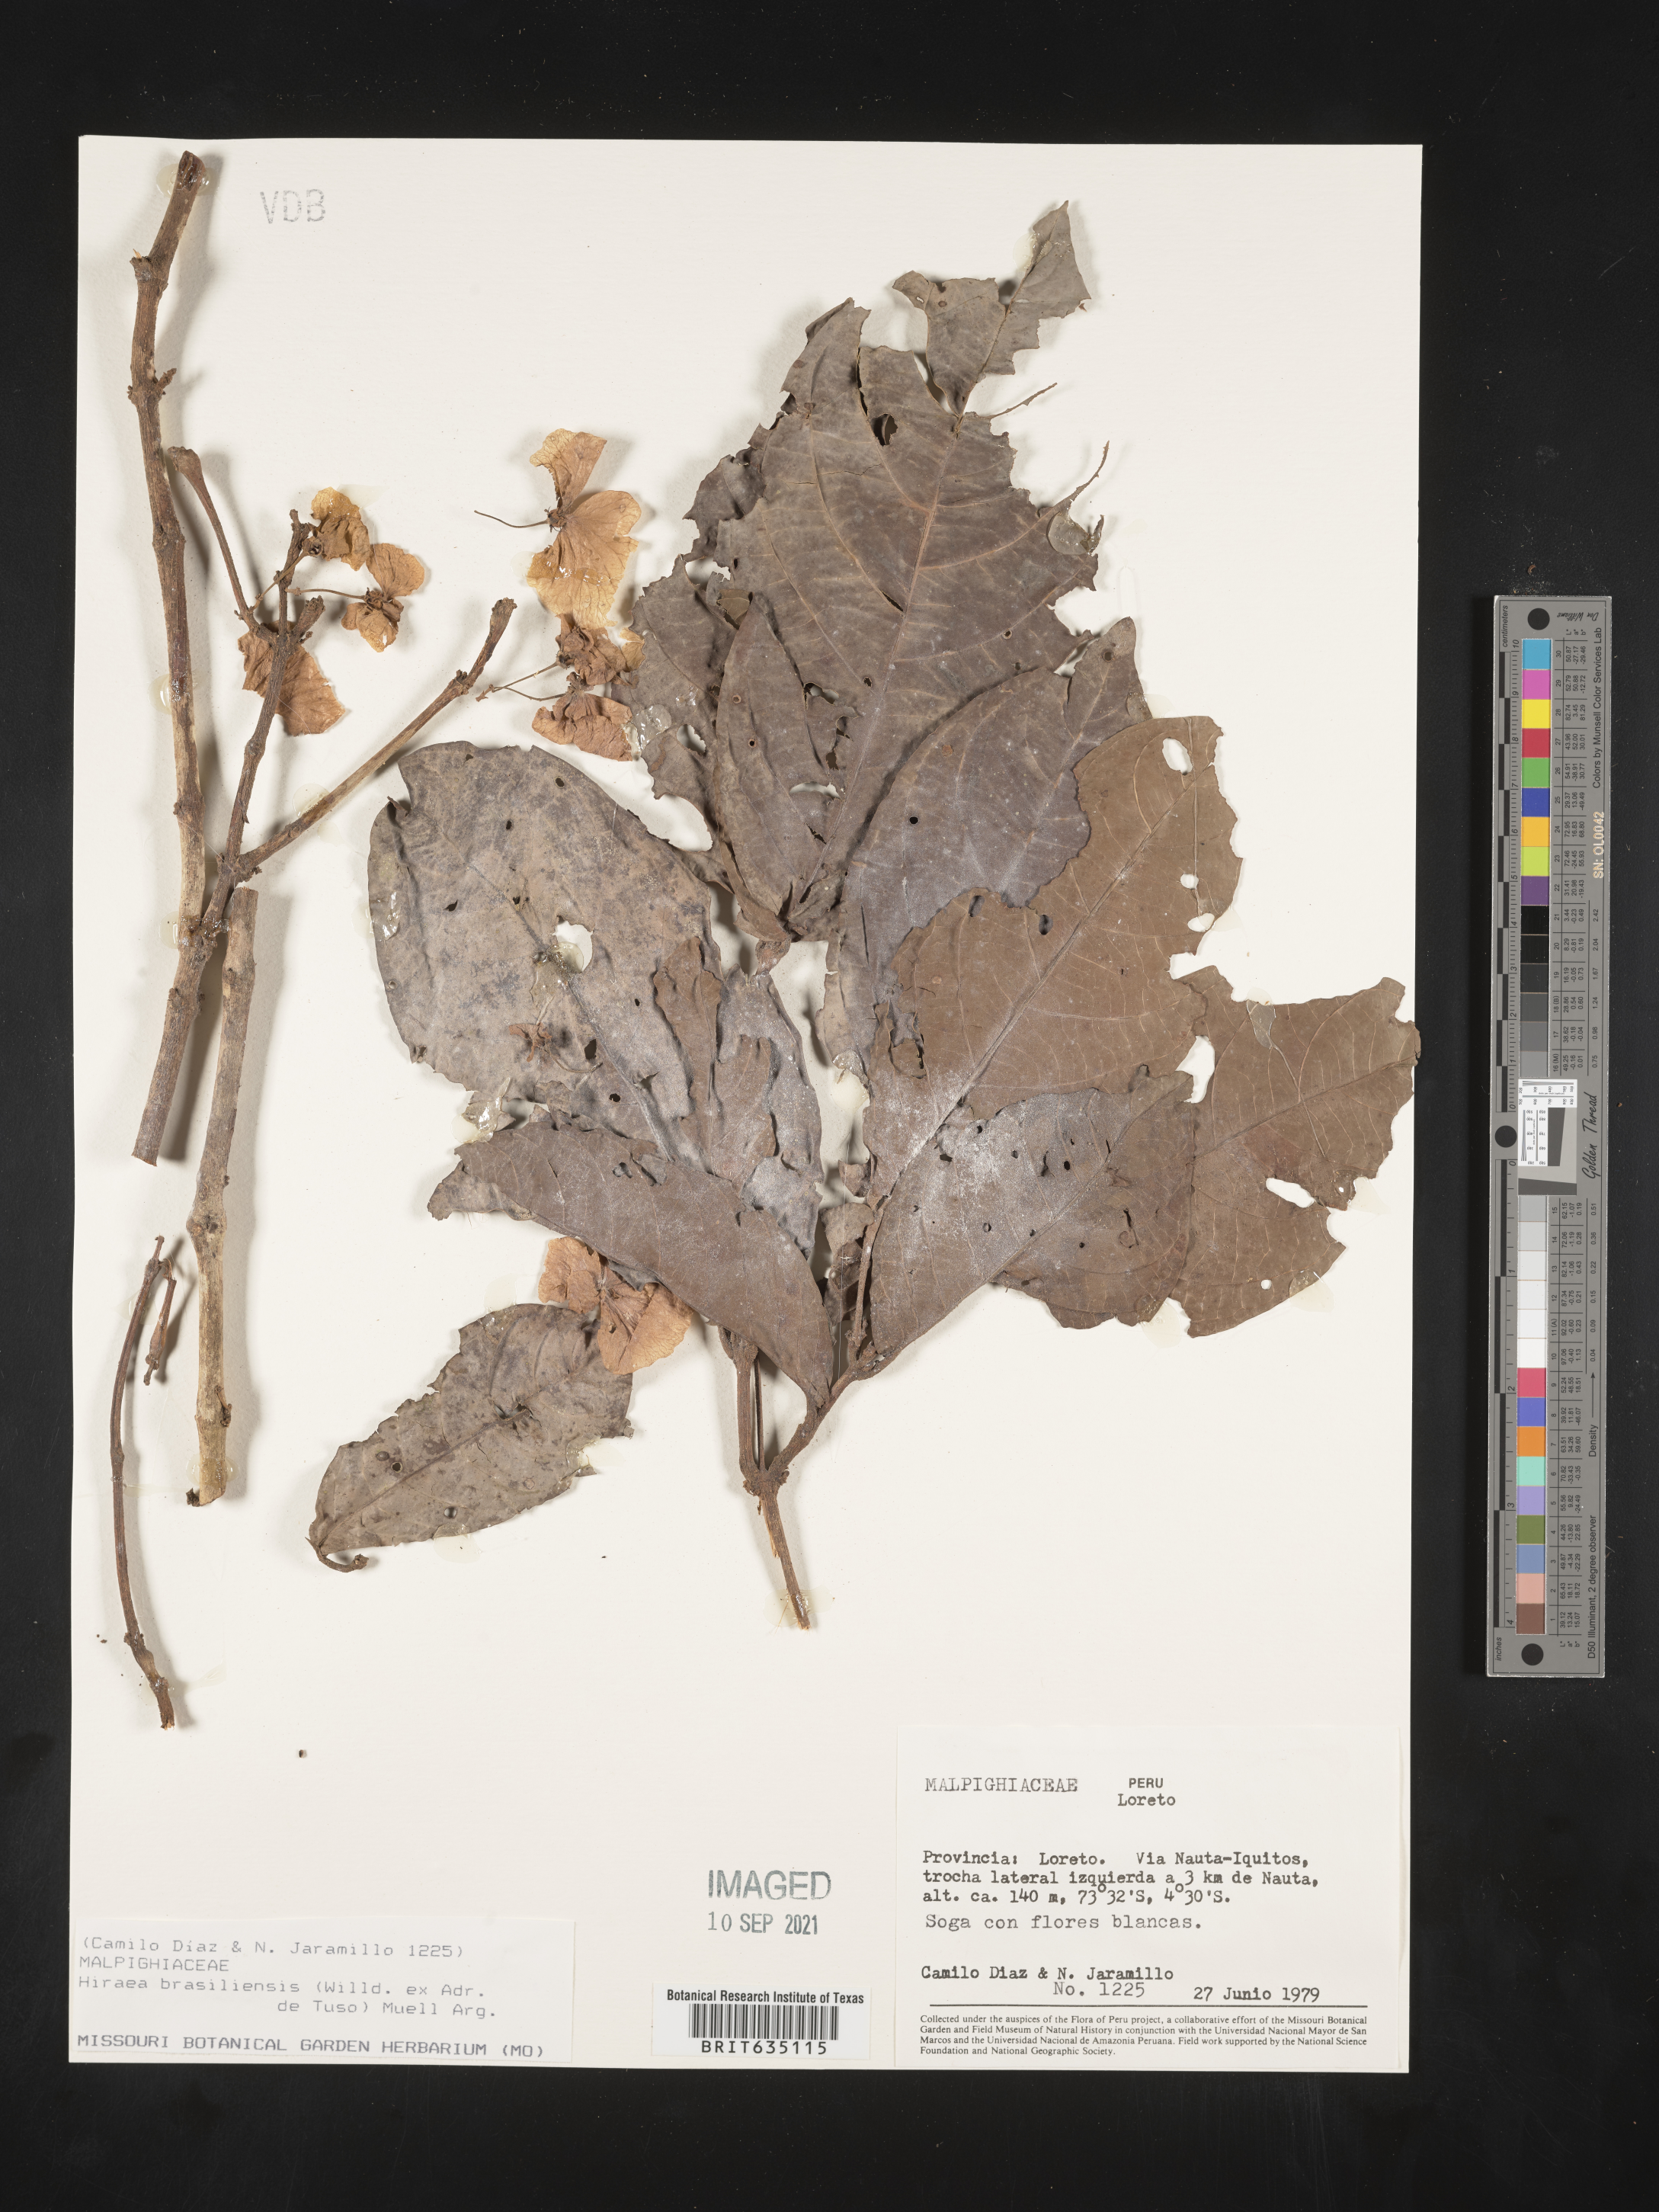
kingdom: Plantae
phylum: Tracheophyta
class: Magnoliopsida
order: Malpighiales
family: Malpighiaceae
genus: Hiraea
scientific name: Hiraea
